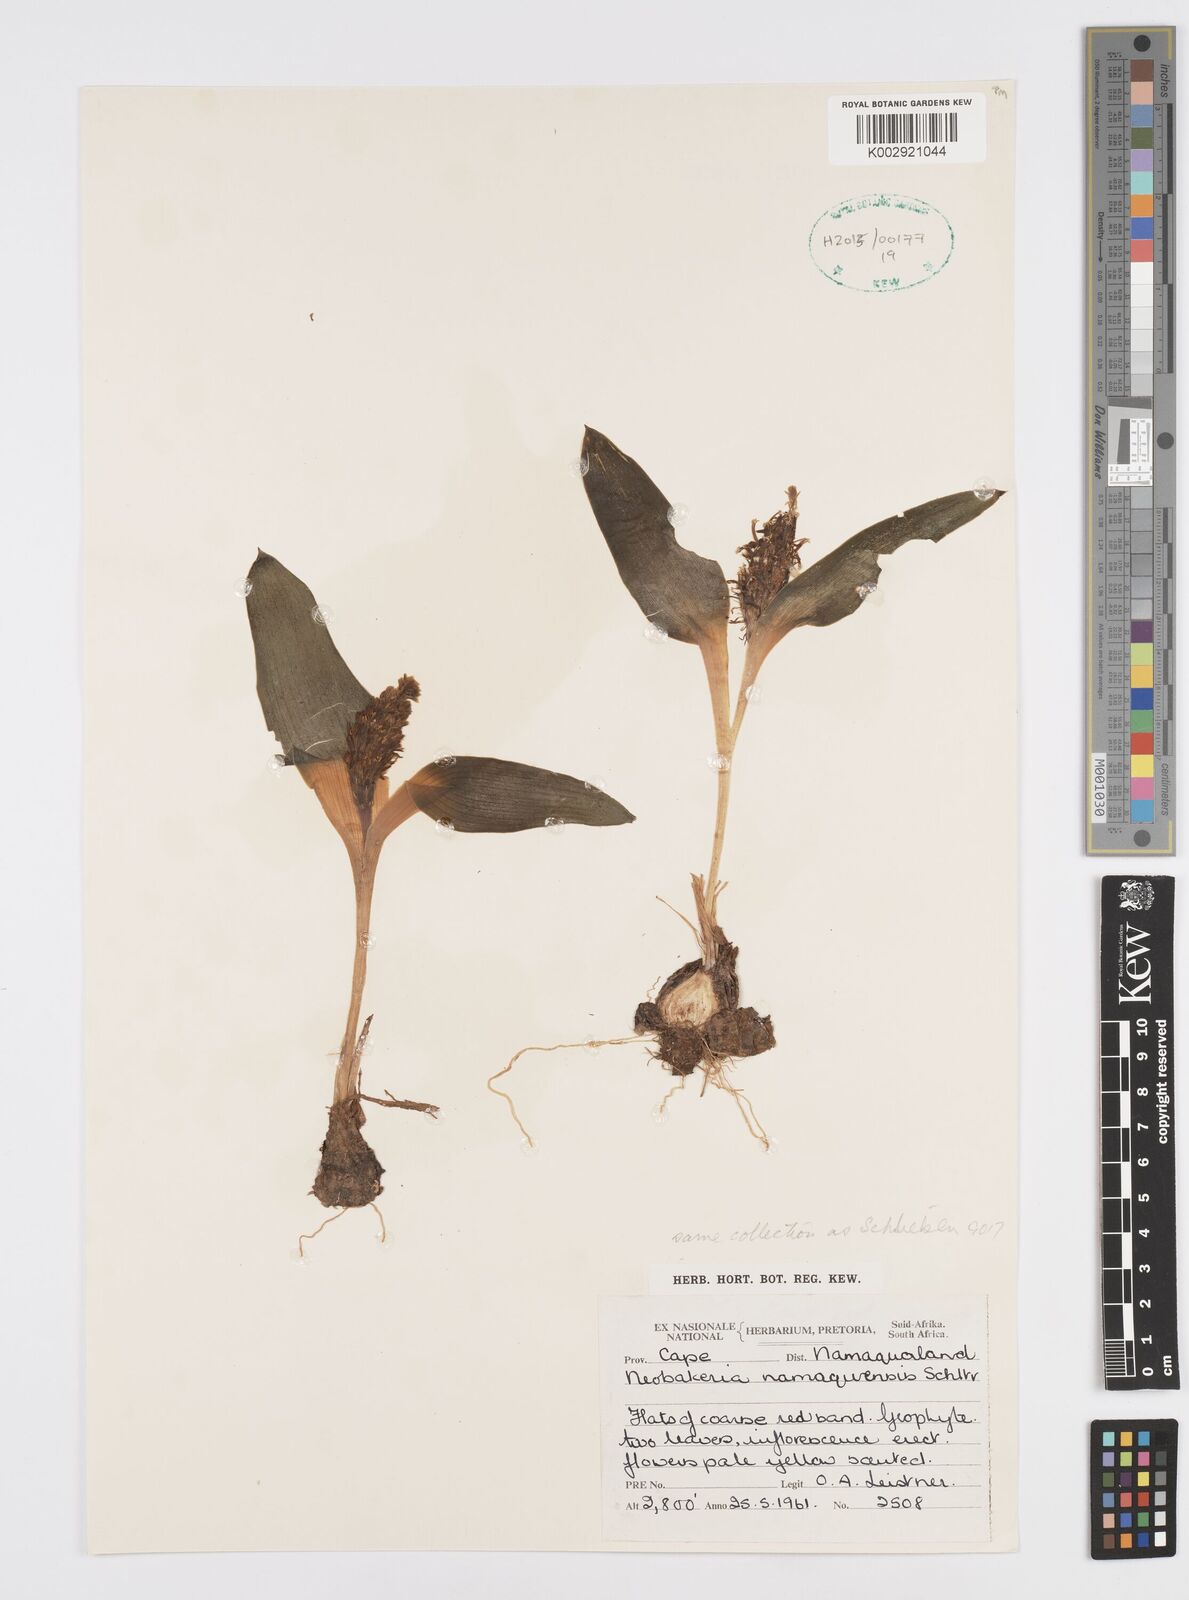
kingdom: Plantae
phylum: Tracheophyta
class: Liliopsida
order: Asparagales
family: Asparagaceae
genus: Massonia
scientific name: Massonia depressa
